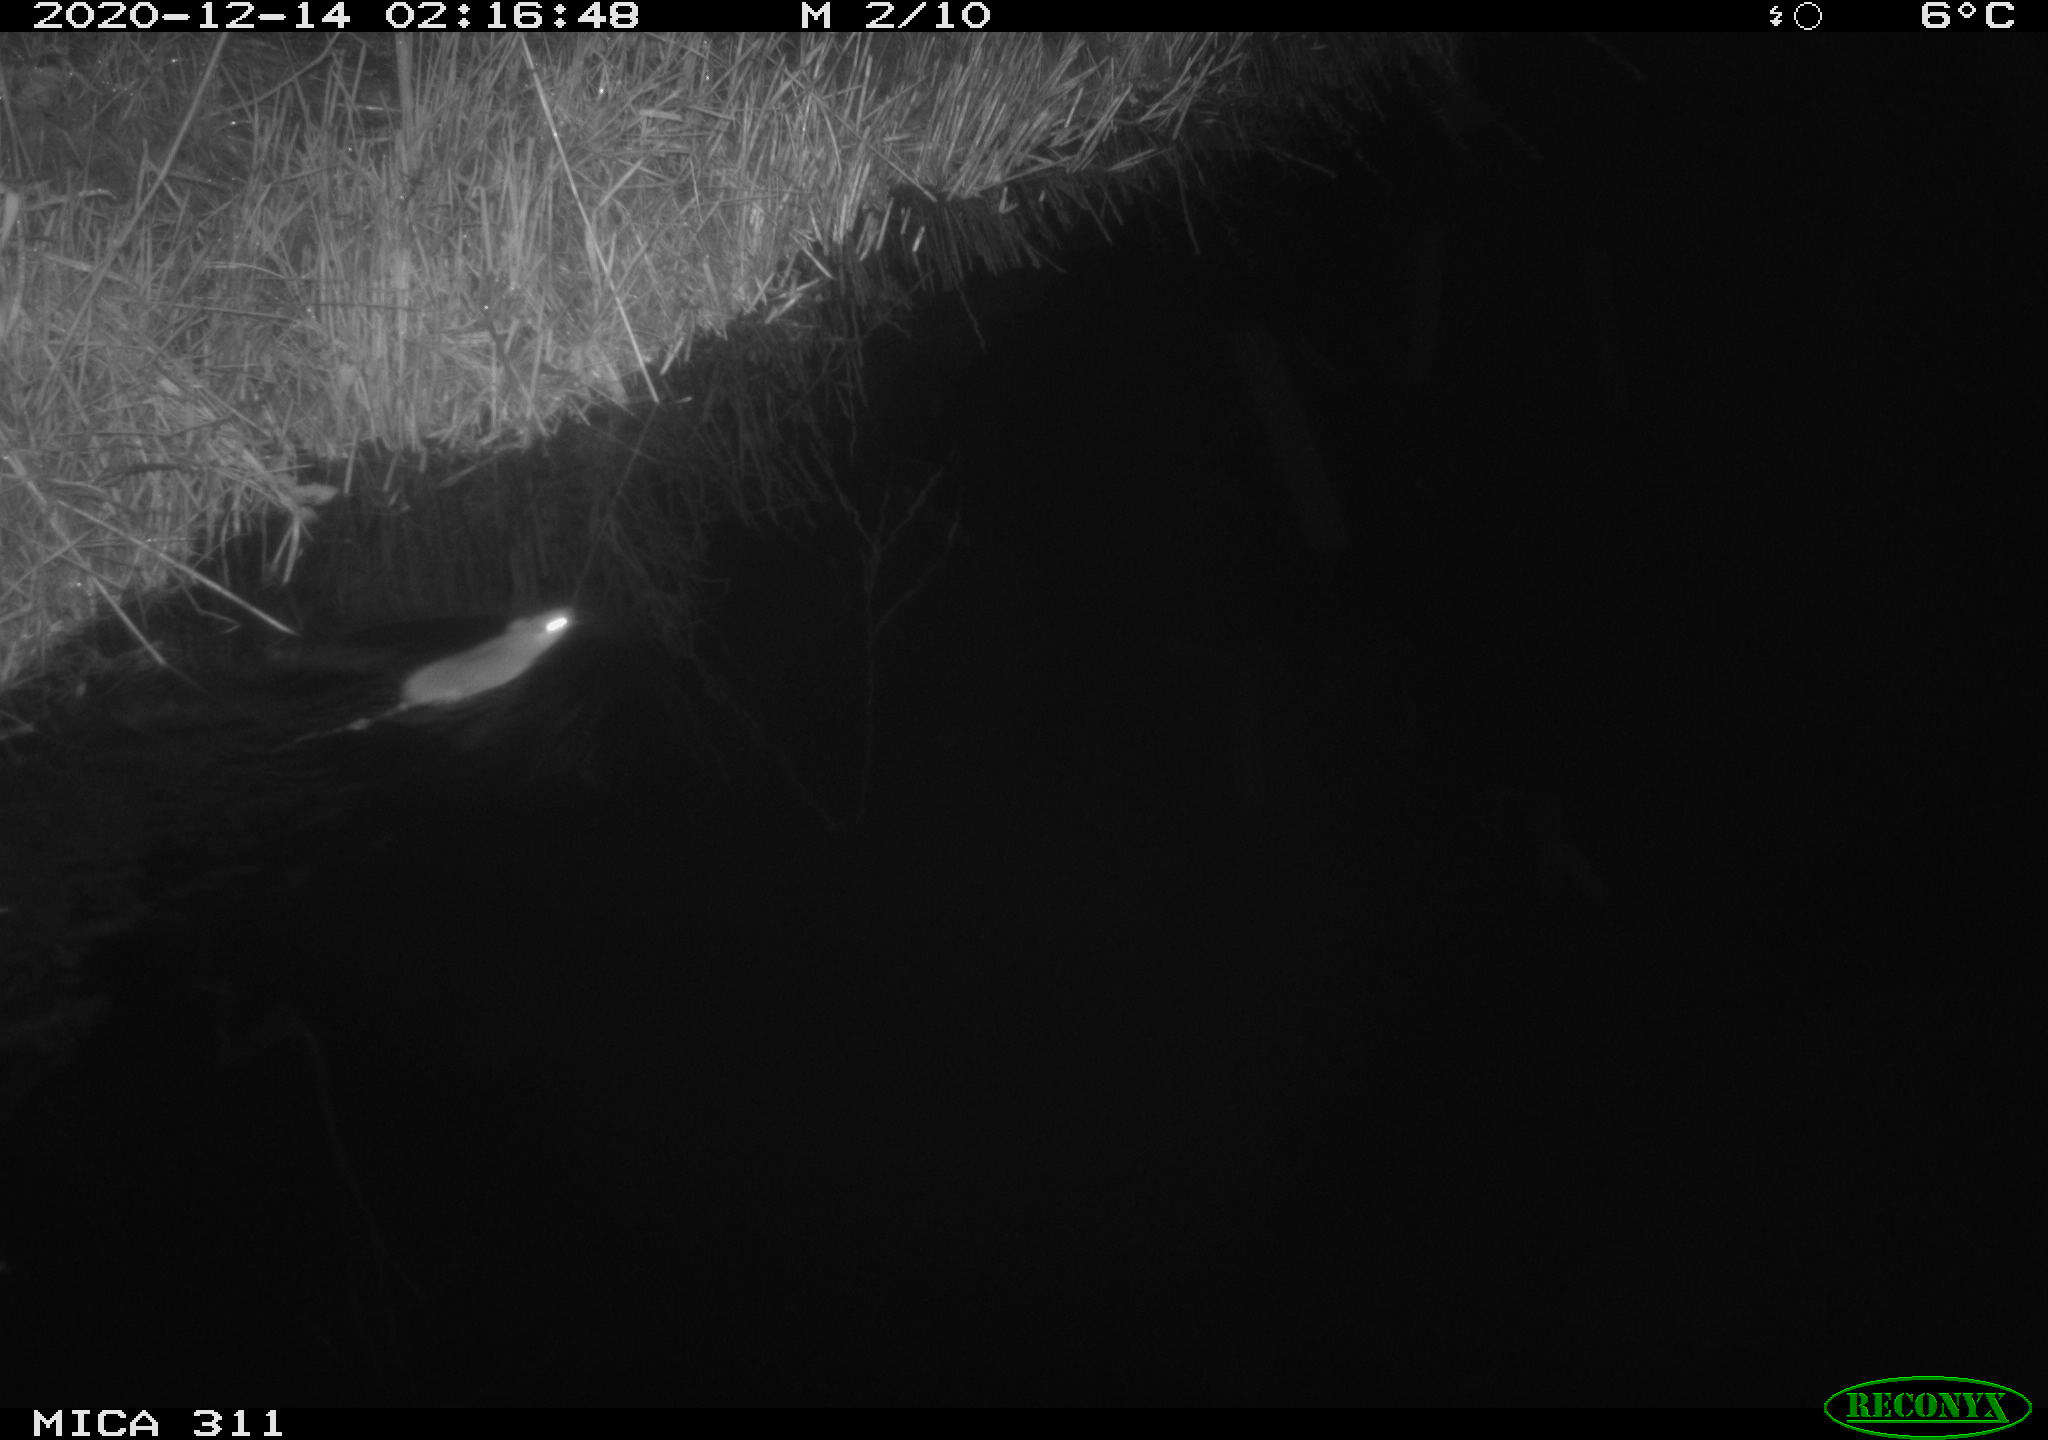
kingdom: Animalia
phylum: Chordata
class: Mammalia
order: Rodentia
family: Muridae
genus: Rattus
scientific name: Rattus norvegicus
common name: Brown rat
